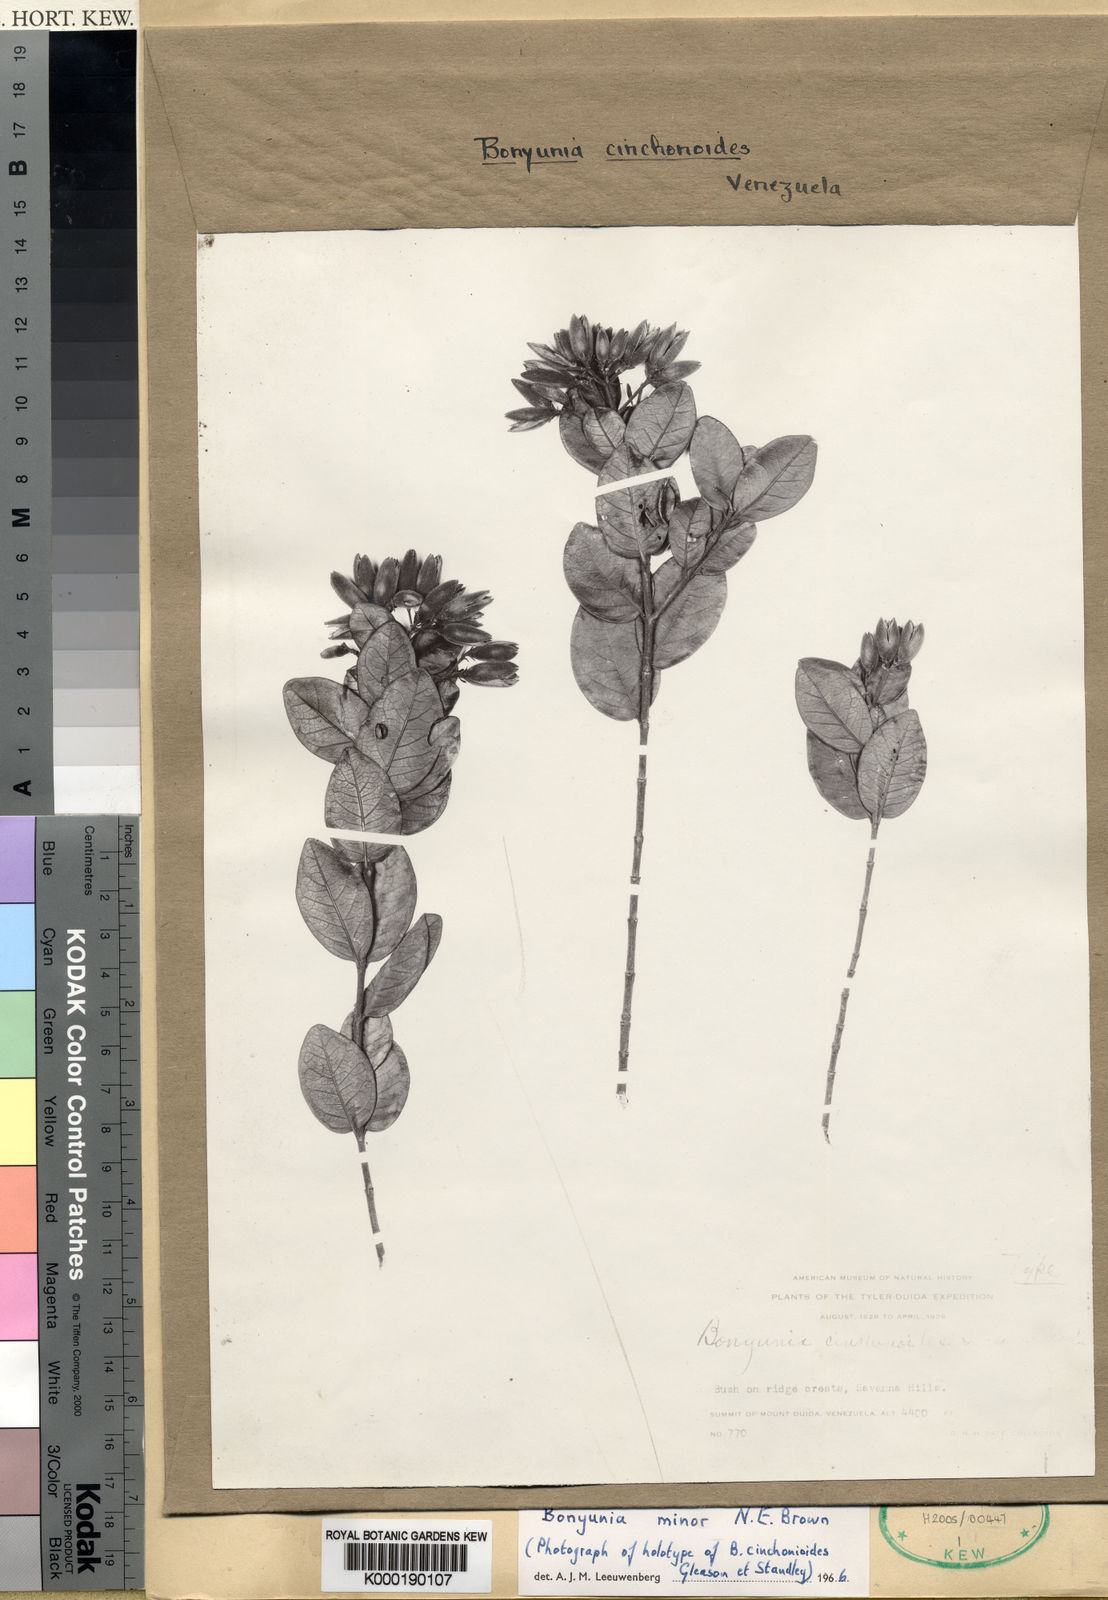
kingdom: Plantae
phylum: Tracheophyta
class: Magnoliopsida
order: Gentianales
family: Loganiaceae
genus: Bonyunia
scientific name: Bonyunia
